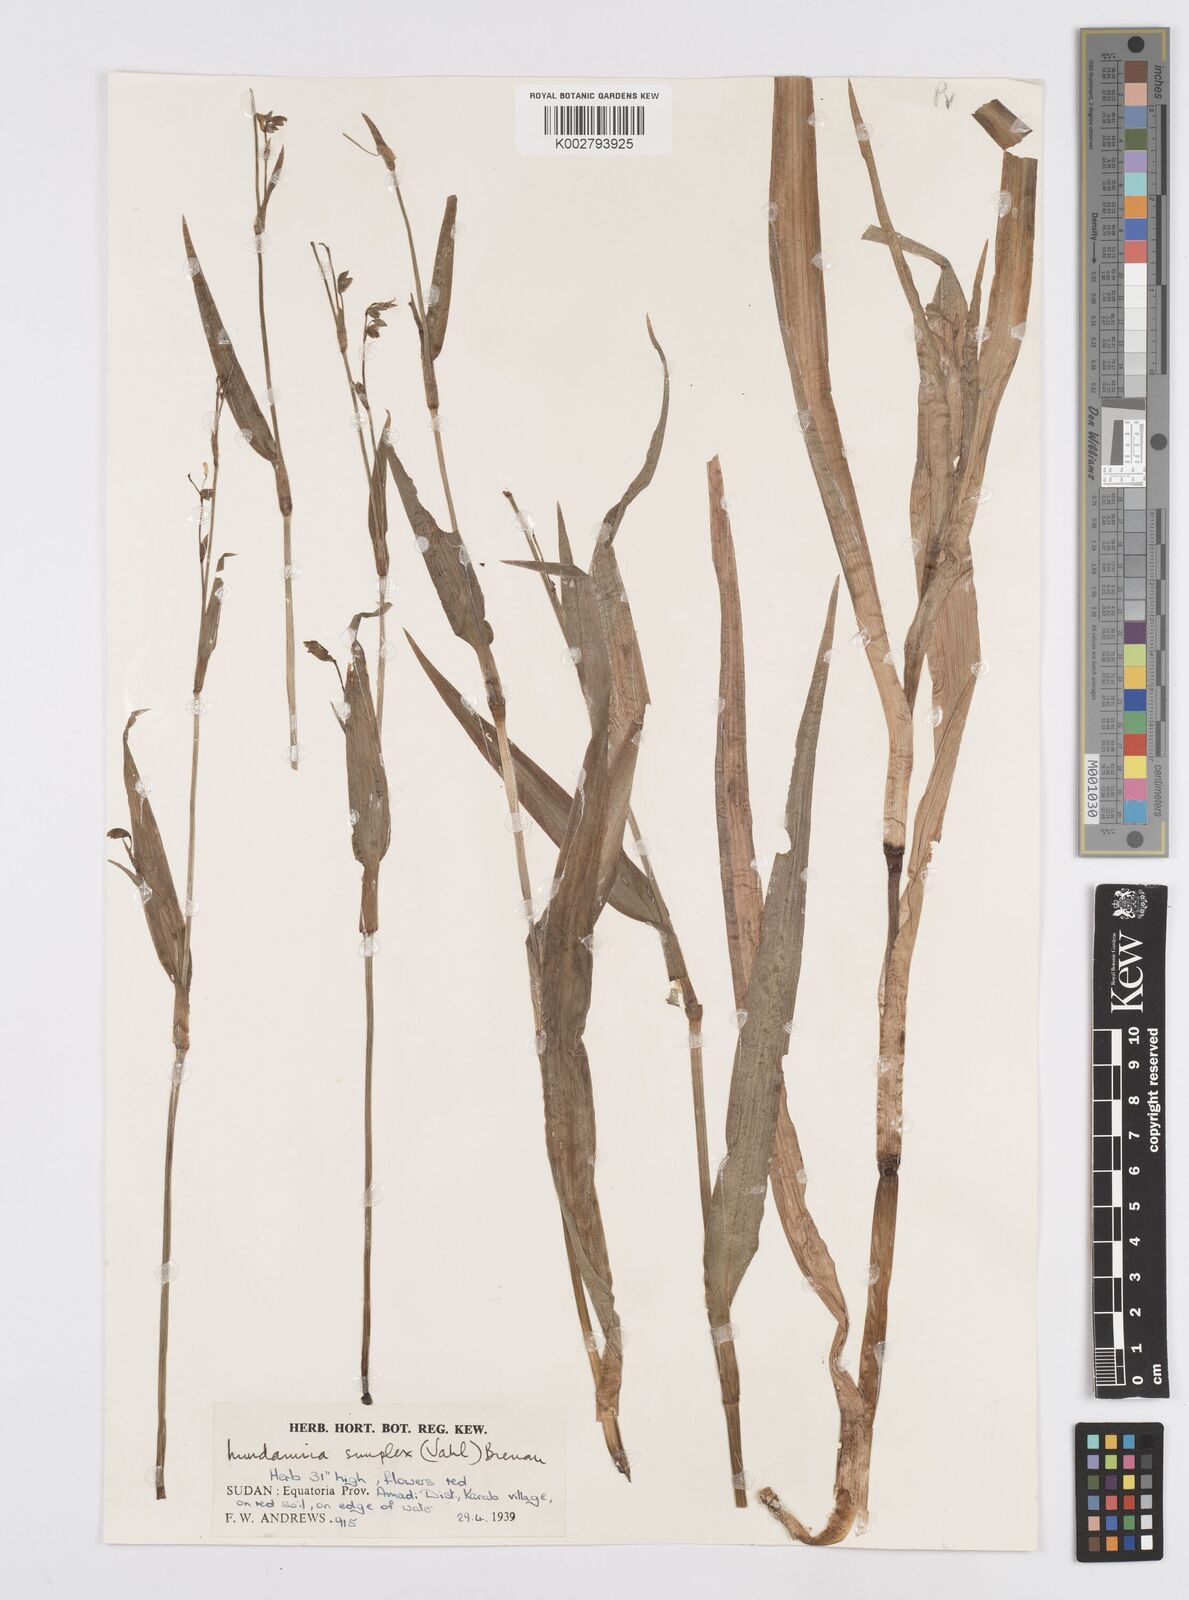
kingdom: Plantae
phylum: Tracheophyta
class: Liliopsida
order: Commelinales
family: Commelinaceae
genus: Murdannia
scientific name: Murdannia simplex
